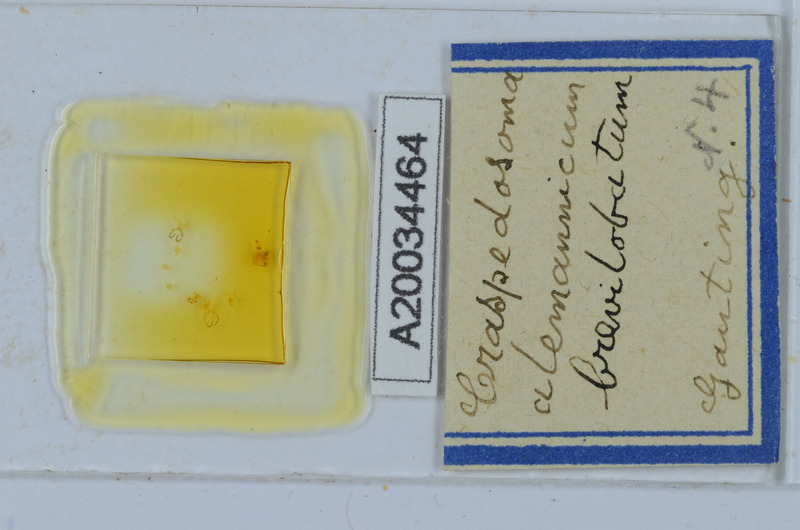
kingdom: Animalia
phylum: Arthropoda
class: Diplopoda
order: Chordeumatida
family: Craspedosomatidae
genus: Craspedosoma
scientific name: Craspedosoma alemannicum
